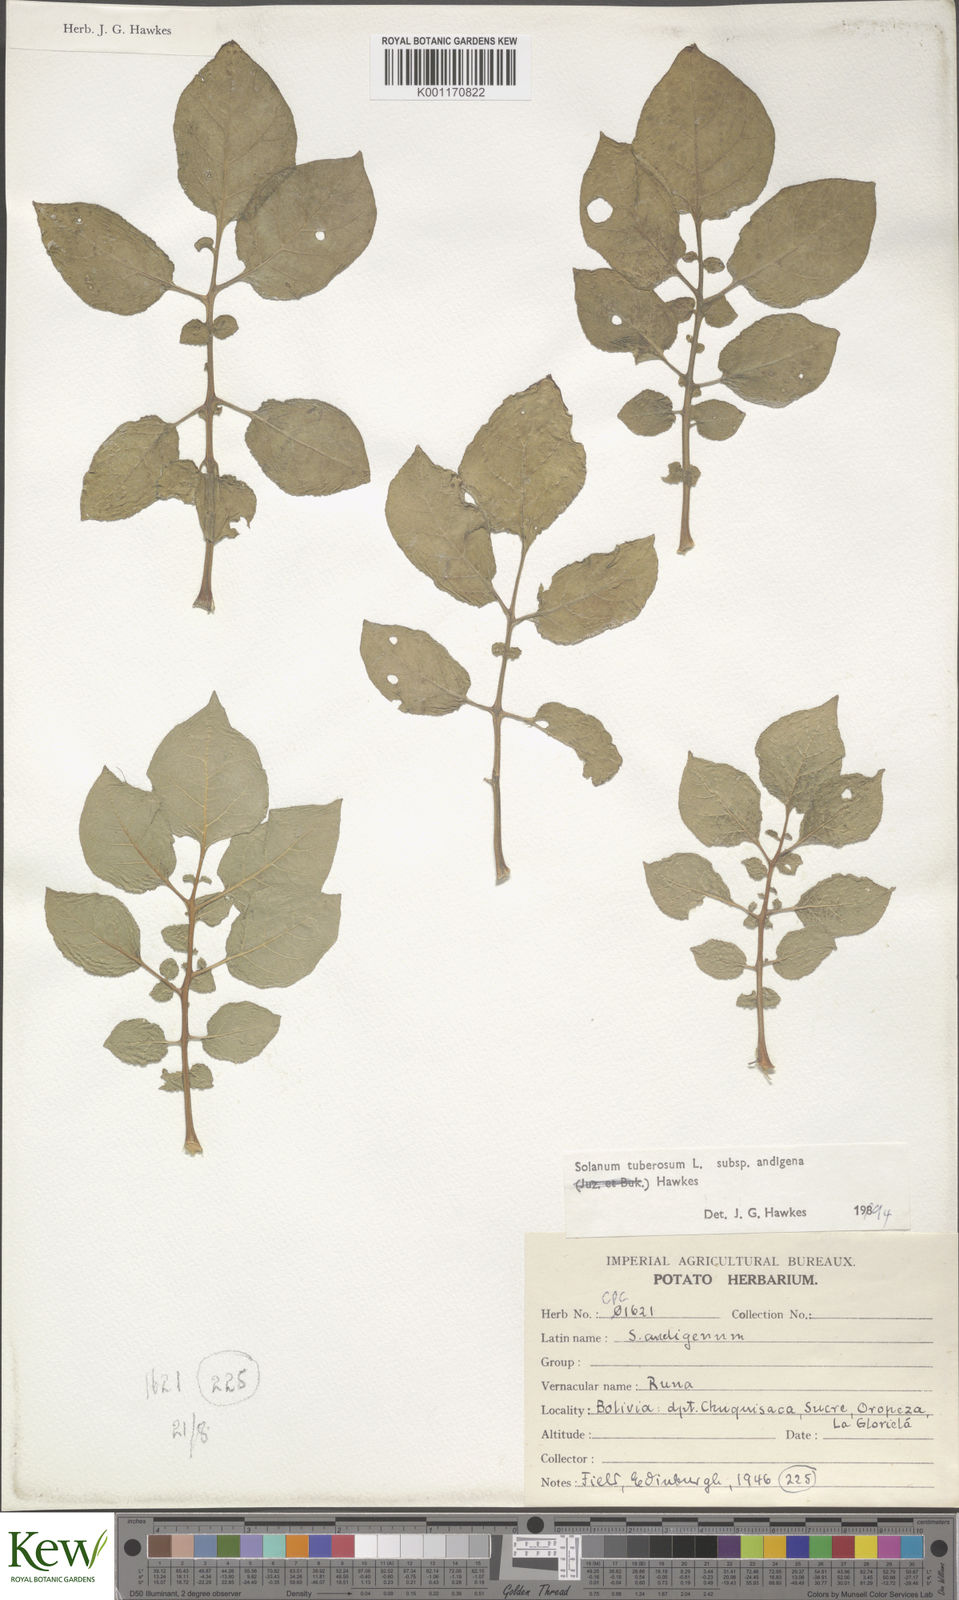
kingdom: Plantae
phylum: Tracheophyta
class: Magnoliopsida
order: Solanales
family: Solanaceae
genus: Solanum
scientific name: Solanum tuberosum
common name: Potato
